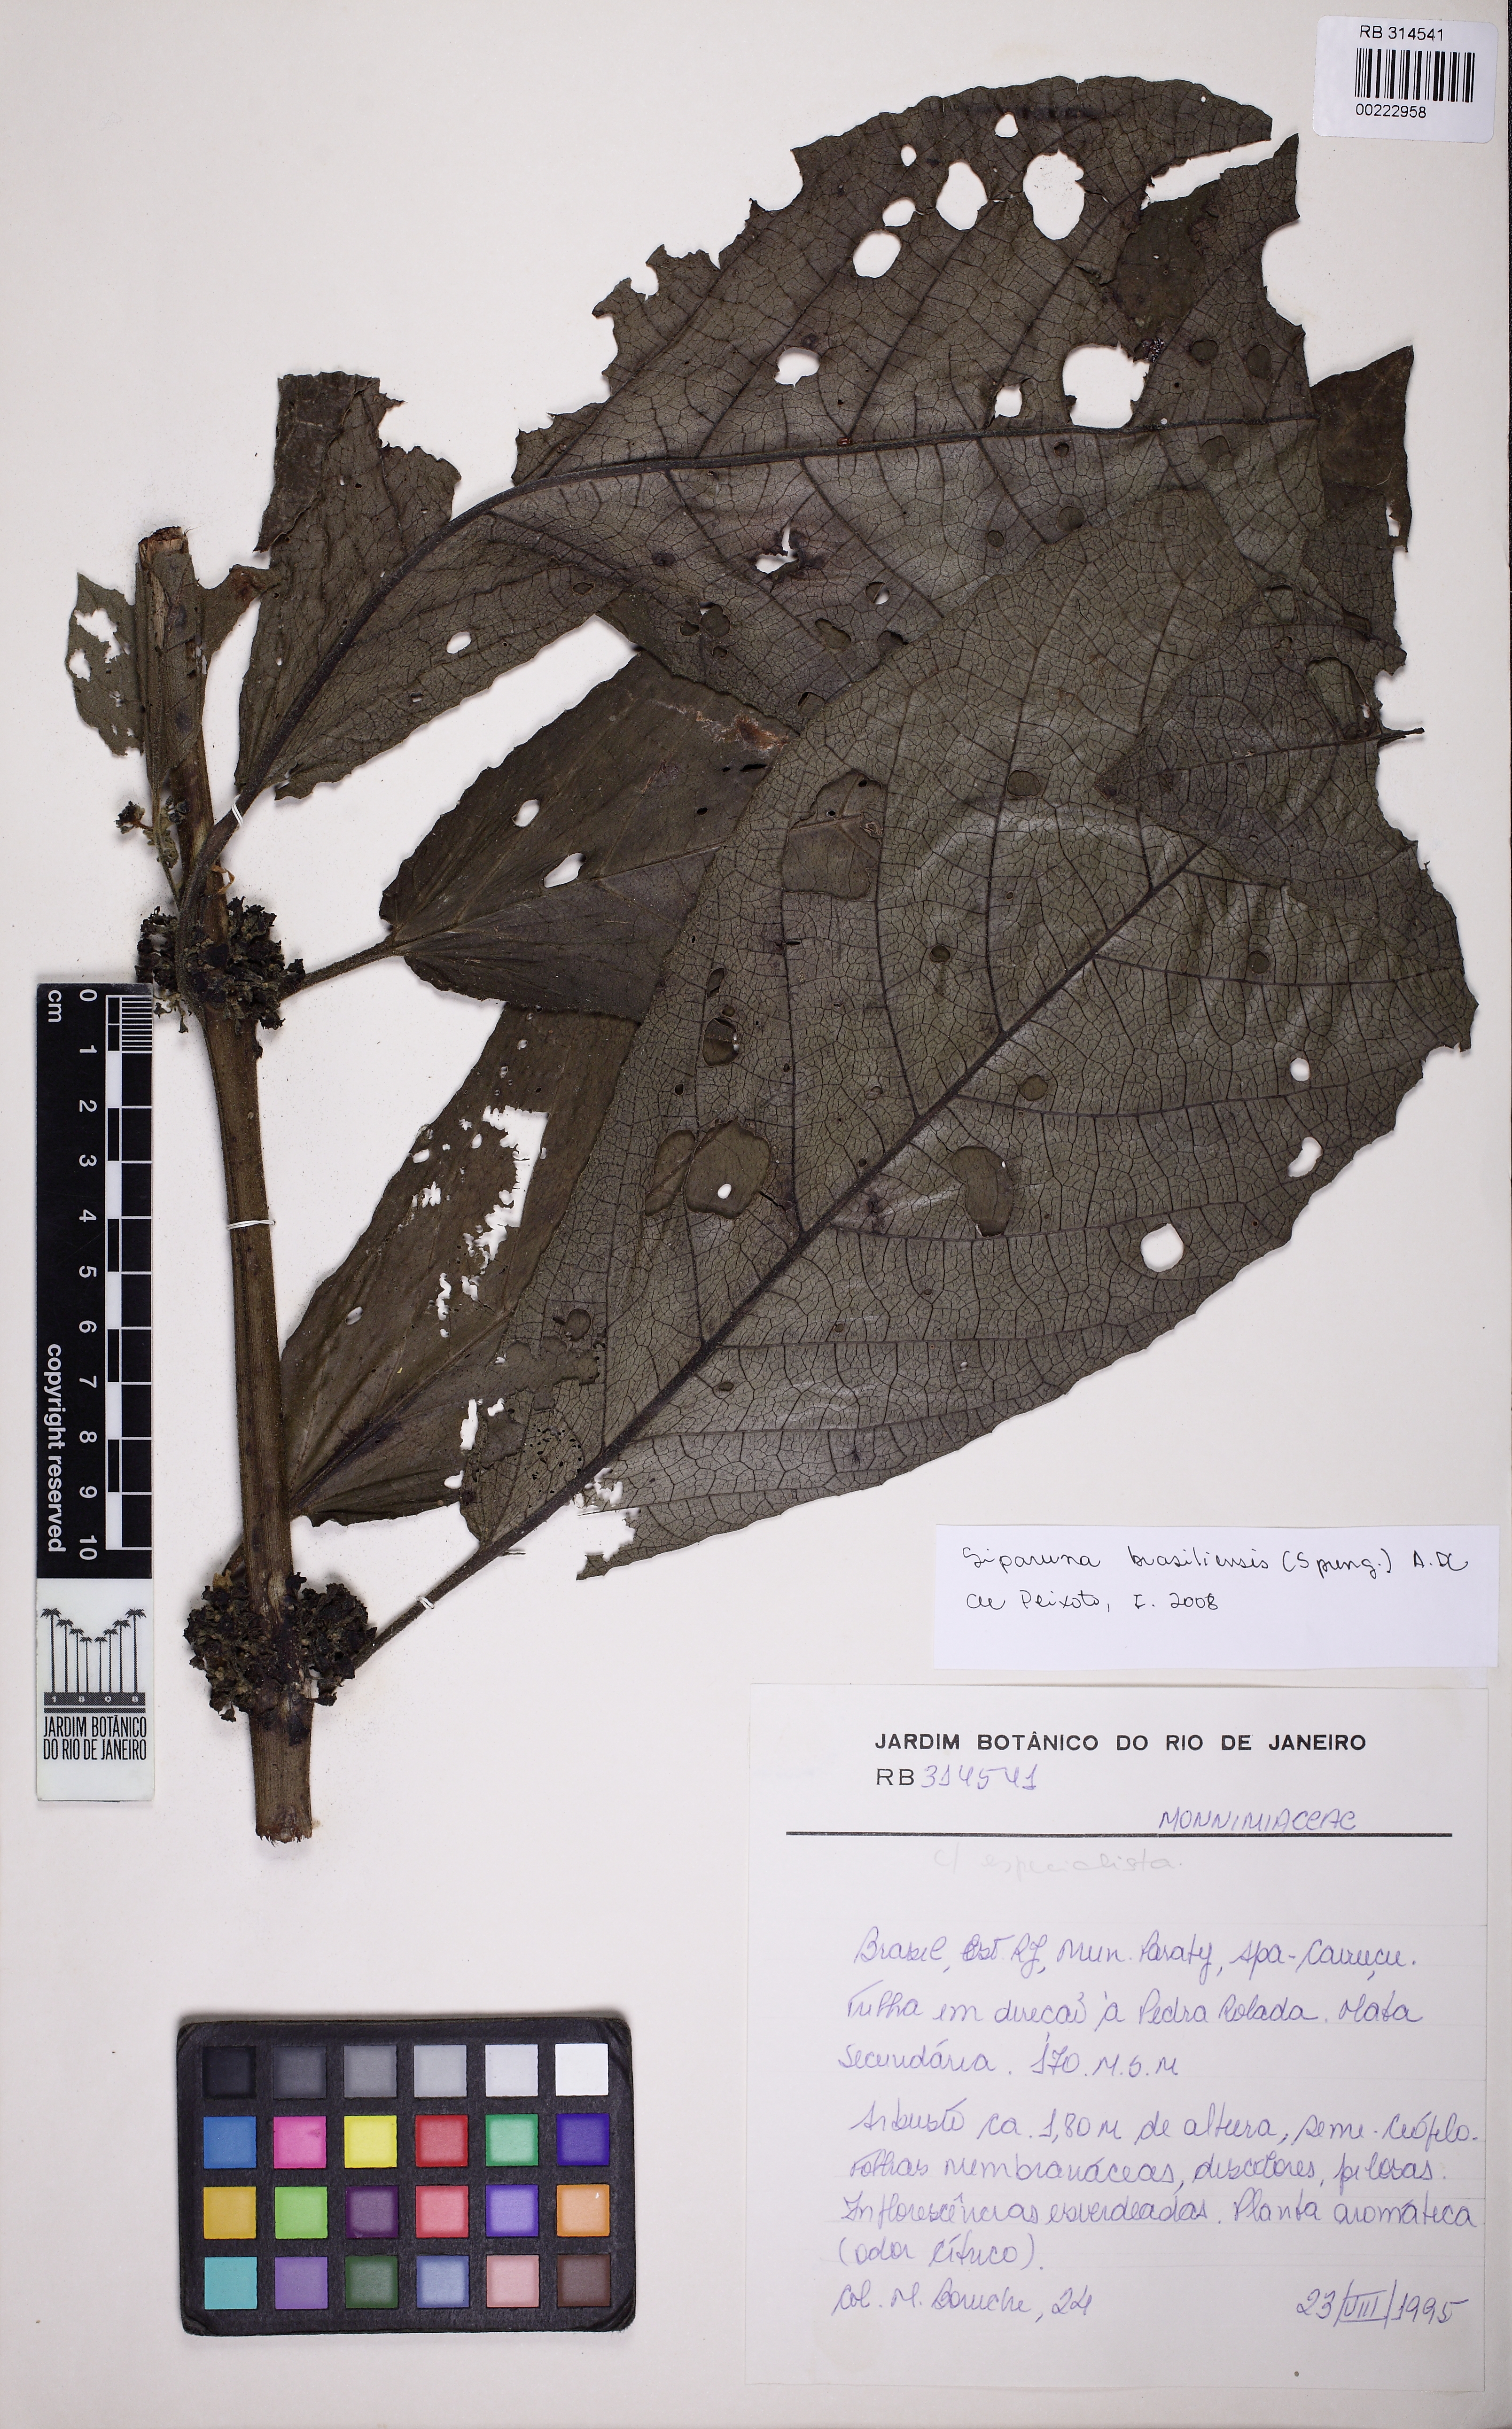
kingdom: Plantae
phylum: Tracheophyta
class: Magnoliopsida
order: Laurales
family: Siparunaceae
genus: Siparuna
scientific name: Siparuna brasiliensis
